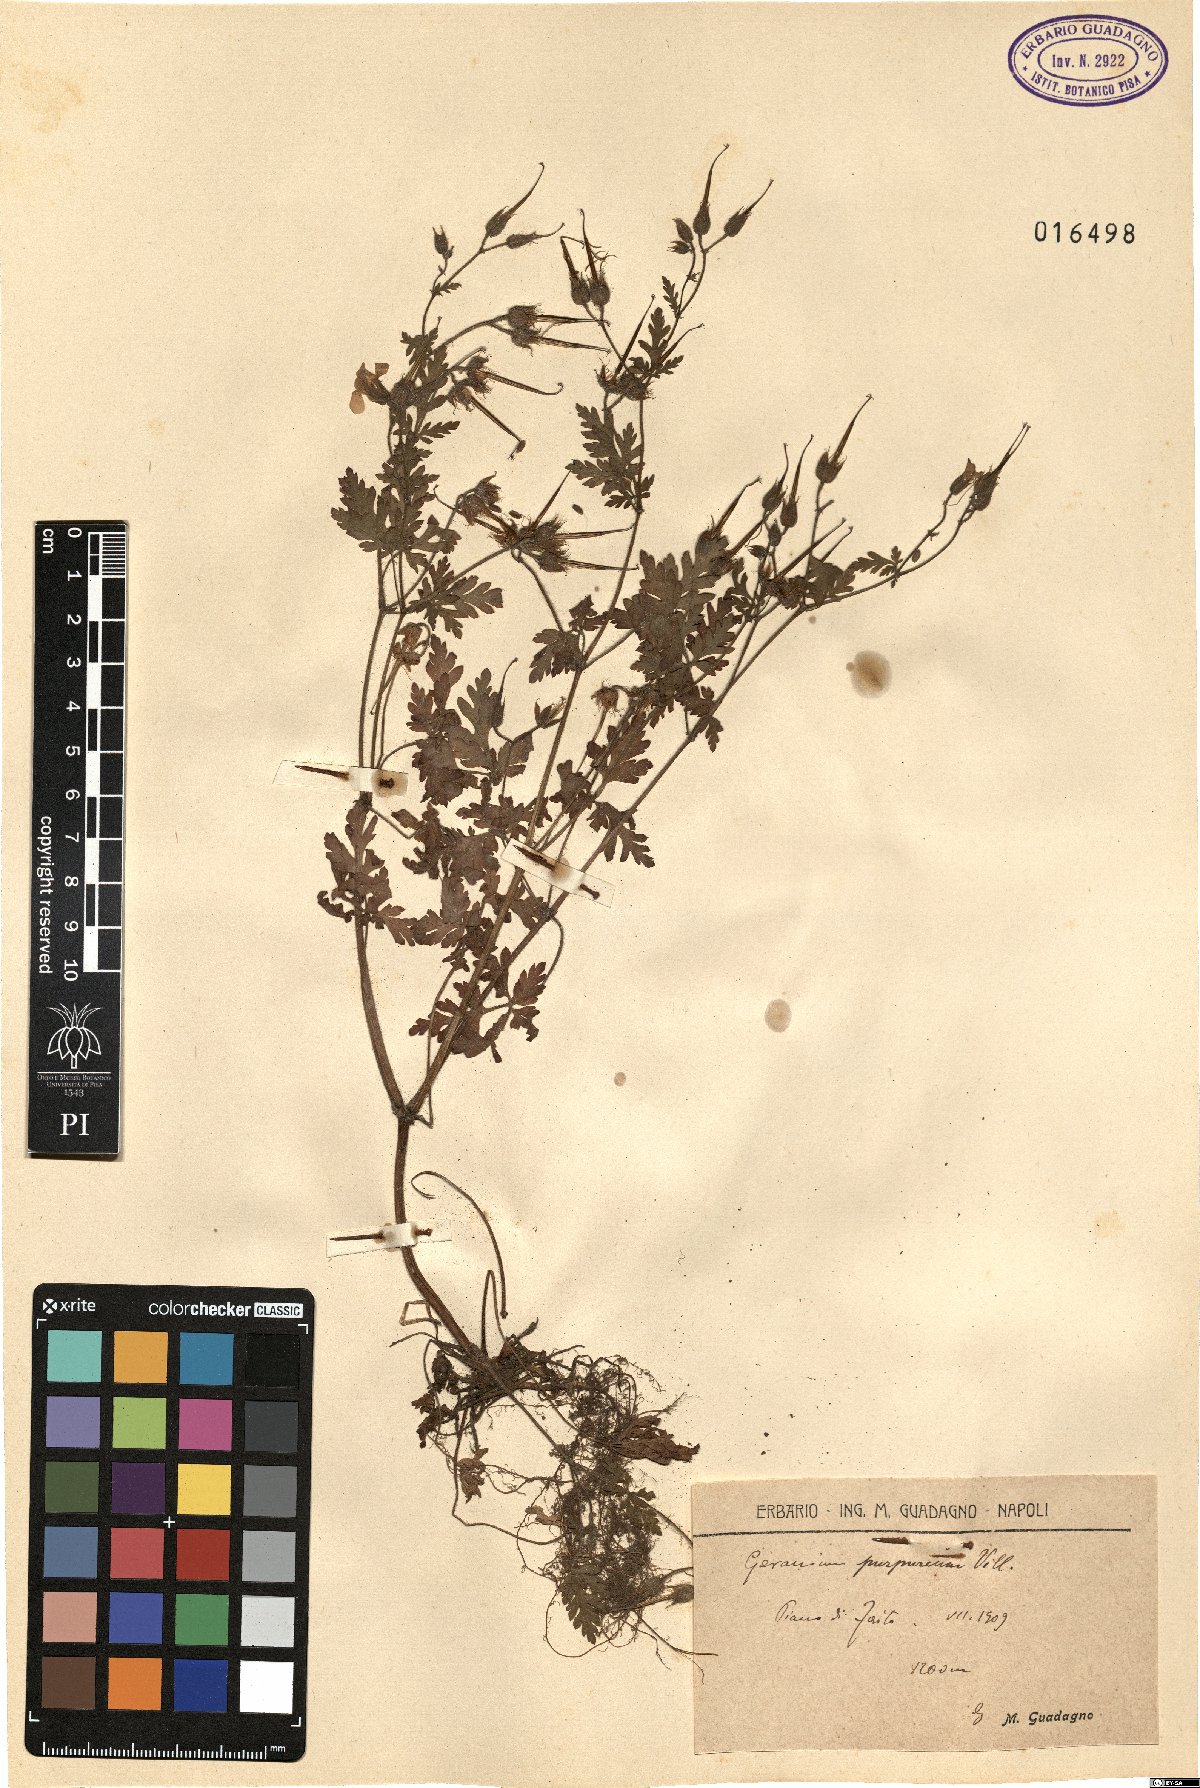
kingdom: Plantae
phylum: Tracheophyta
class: Magnoliopsida
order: Geraniales
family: Geraniaceae
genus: Geranium
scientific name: Geranium purpureum
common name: Little-robin
